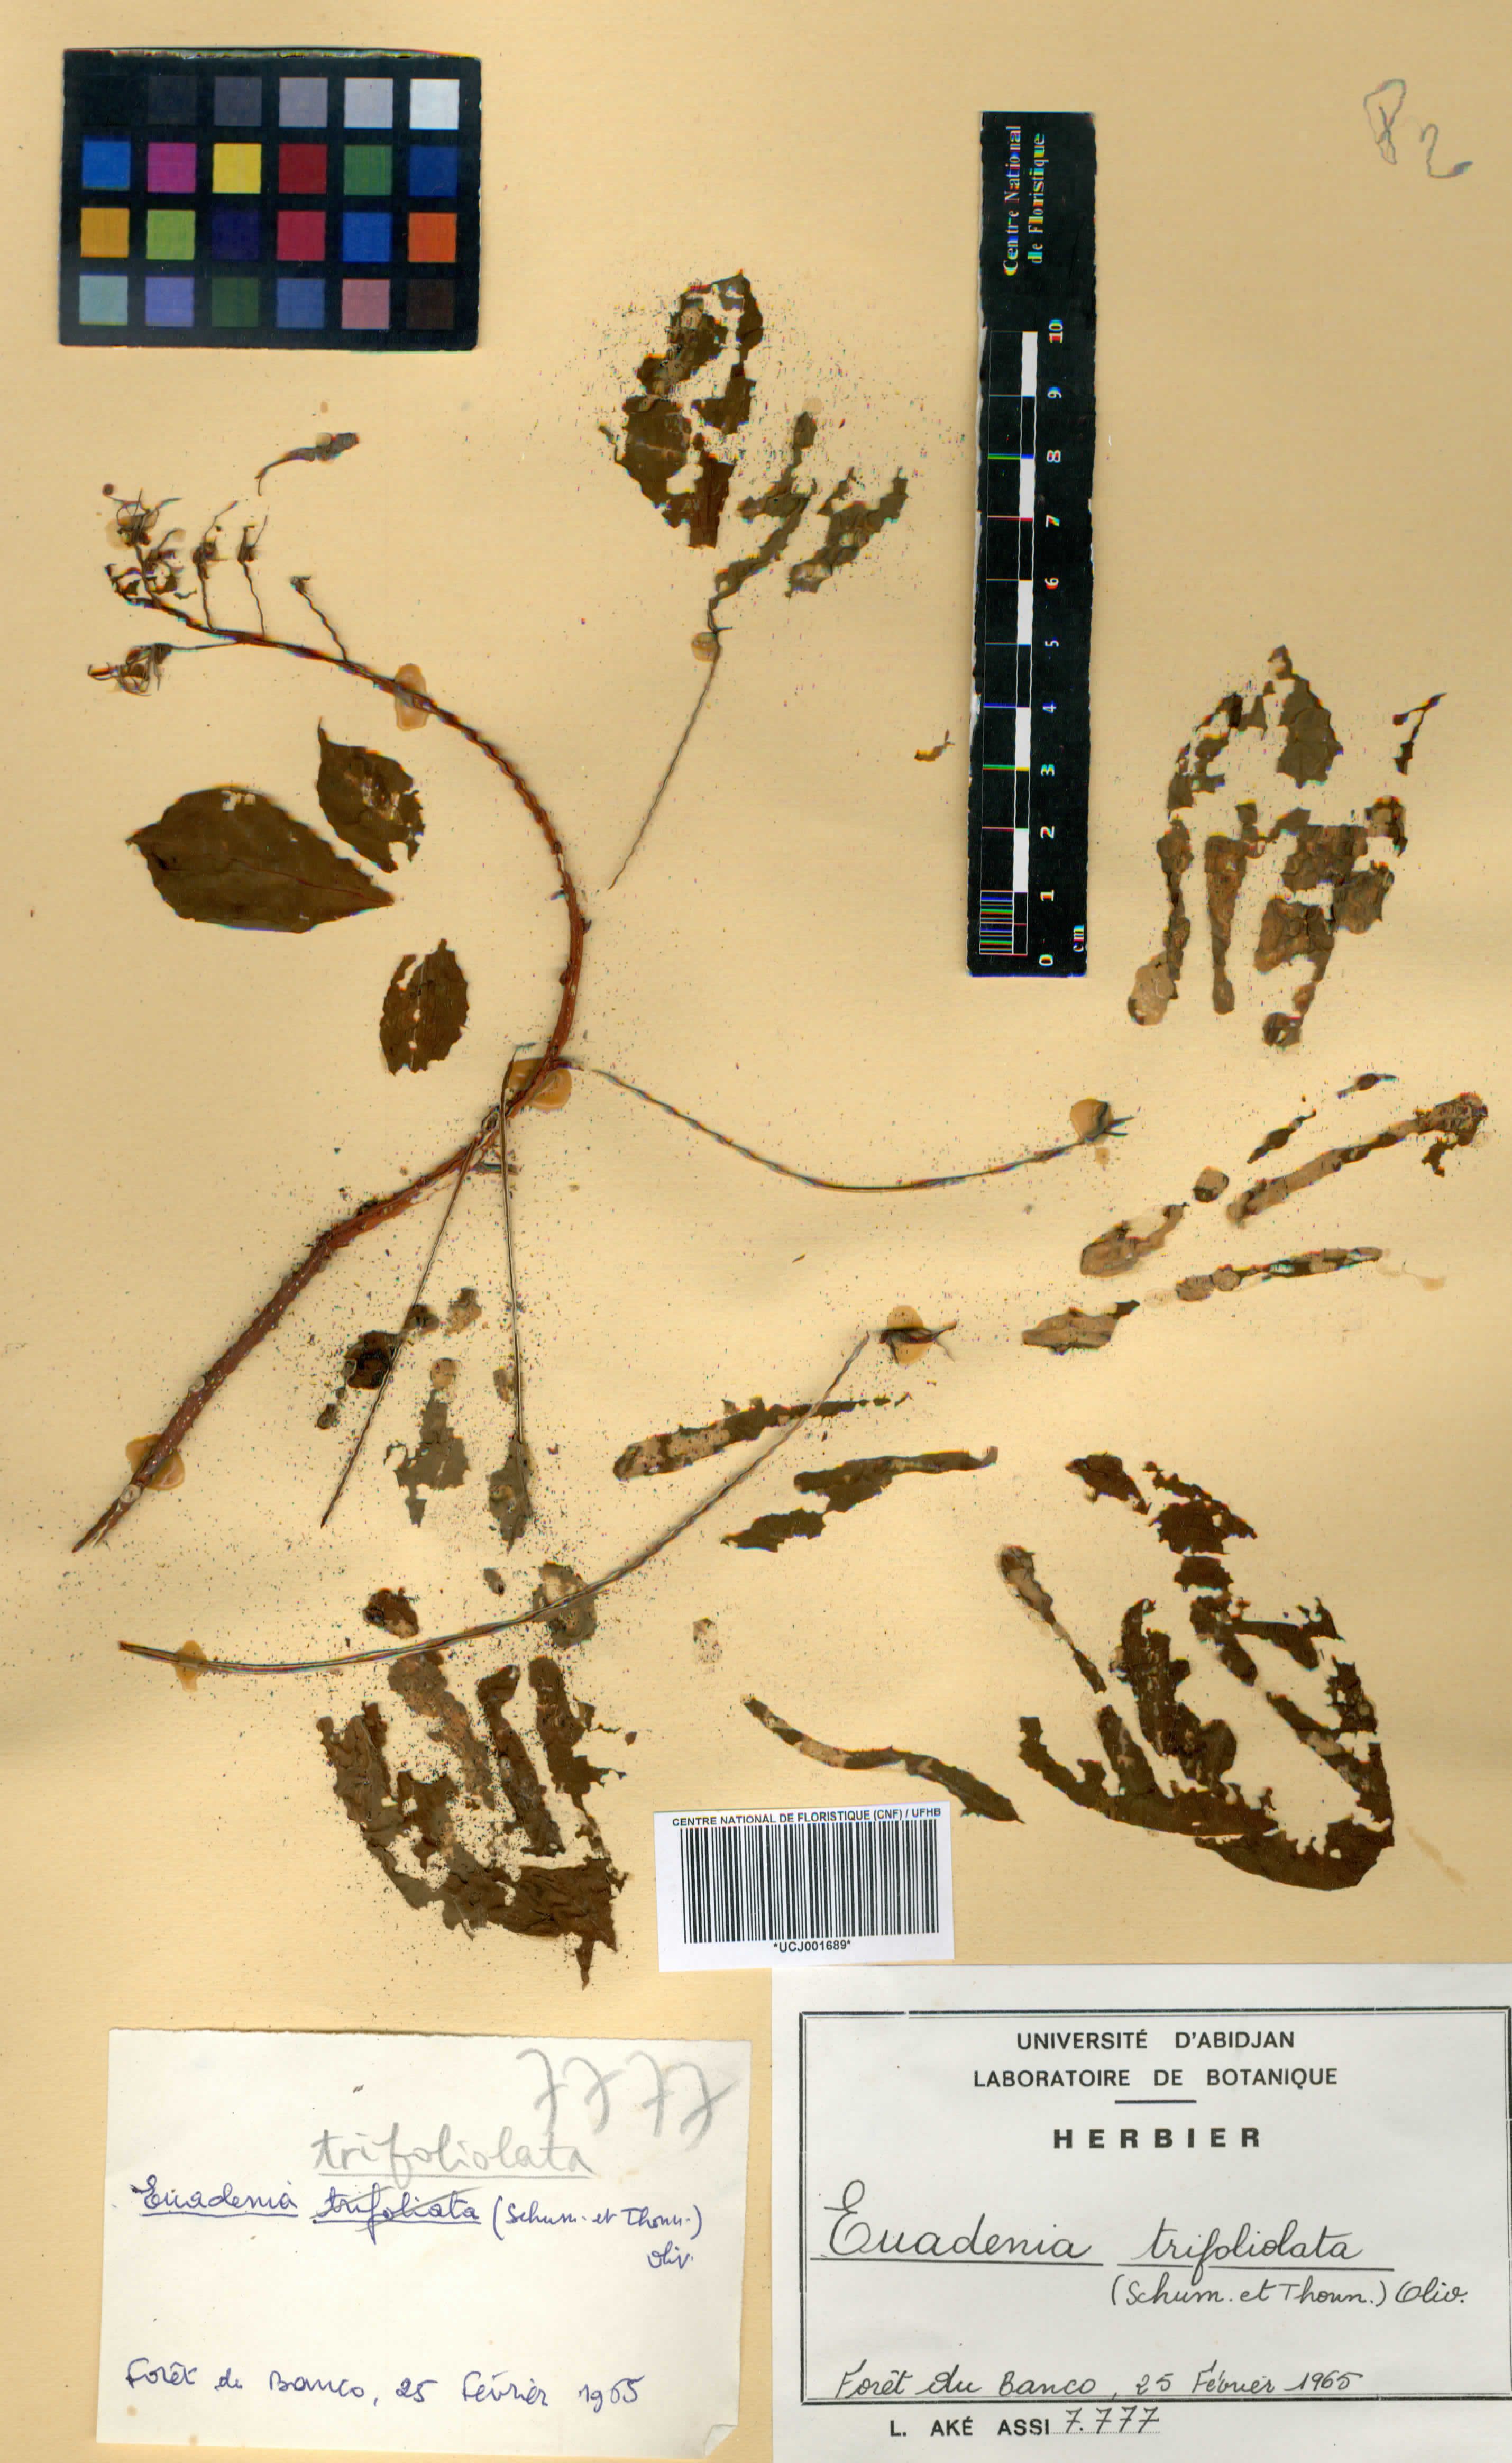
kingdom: Plantae
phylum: Tracheophyta
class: Magnoliopsida
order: Brassicales
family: Capparaceae
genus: Euadenia
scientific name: Euadenia trifoliolata
